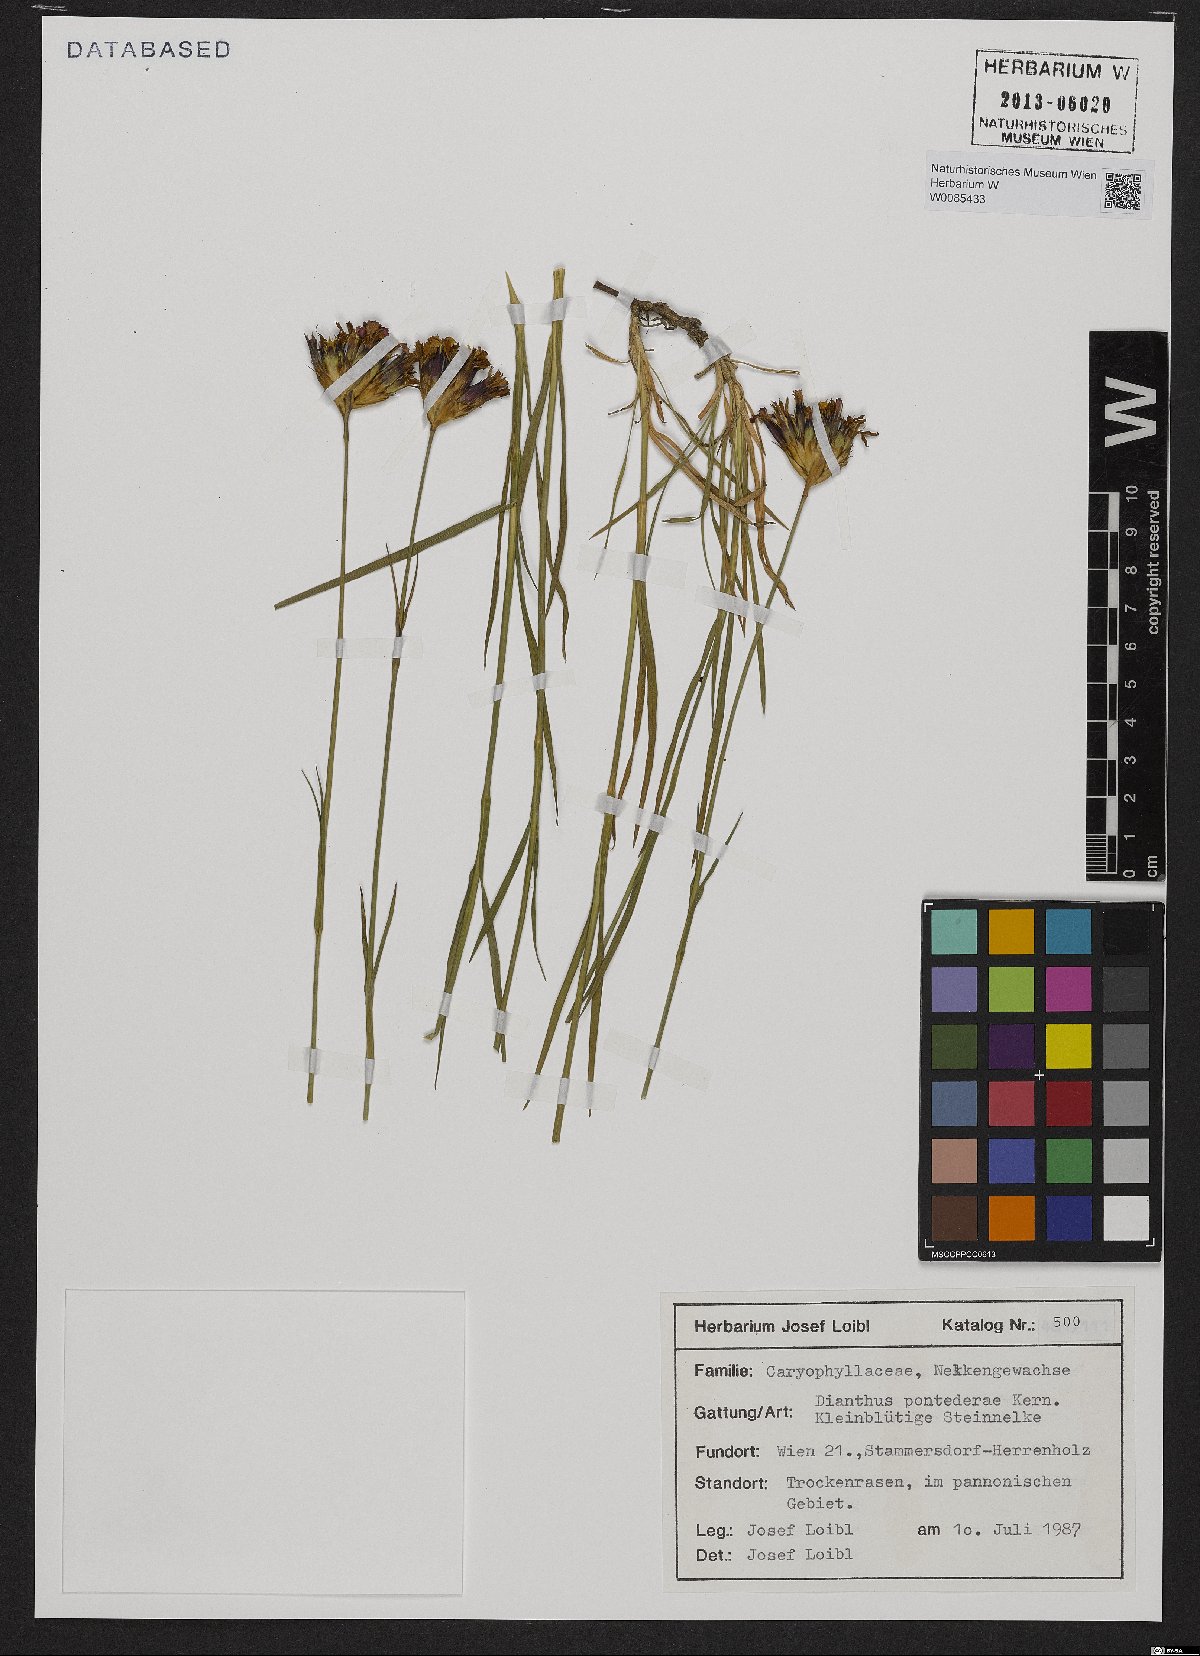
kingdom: Plantae
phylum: Tracheophyta
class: Magnoliopsida
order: Caryophyllales
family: Caryophyllaceae
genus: Dianthus
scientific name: Dianthus pontederae
